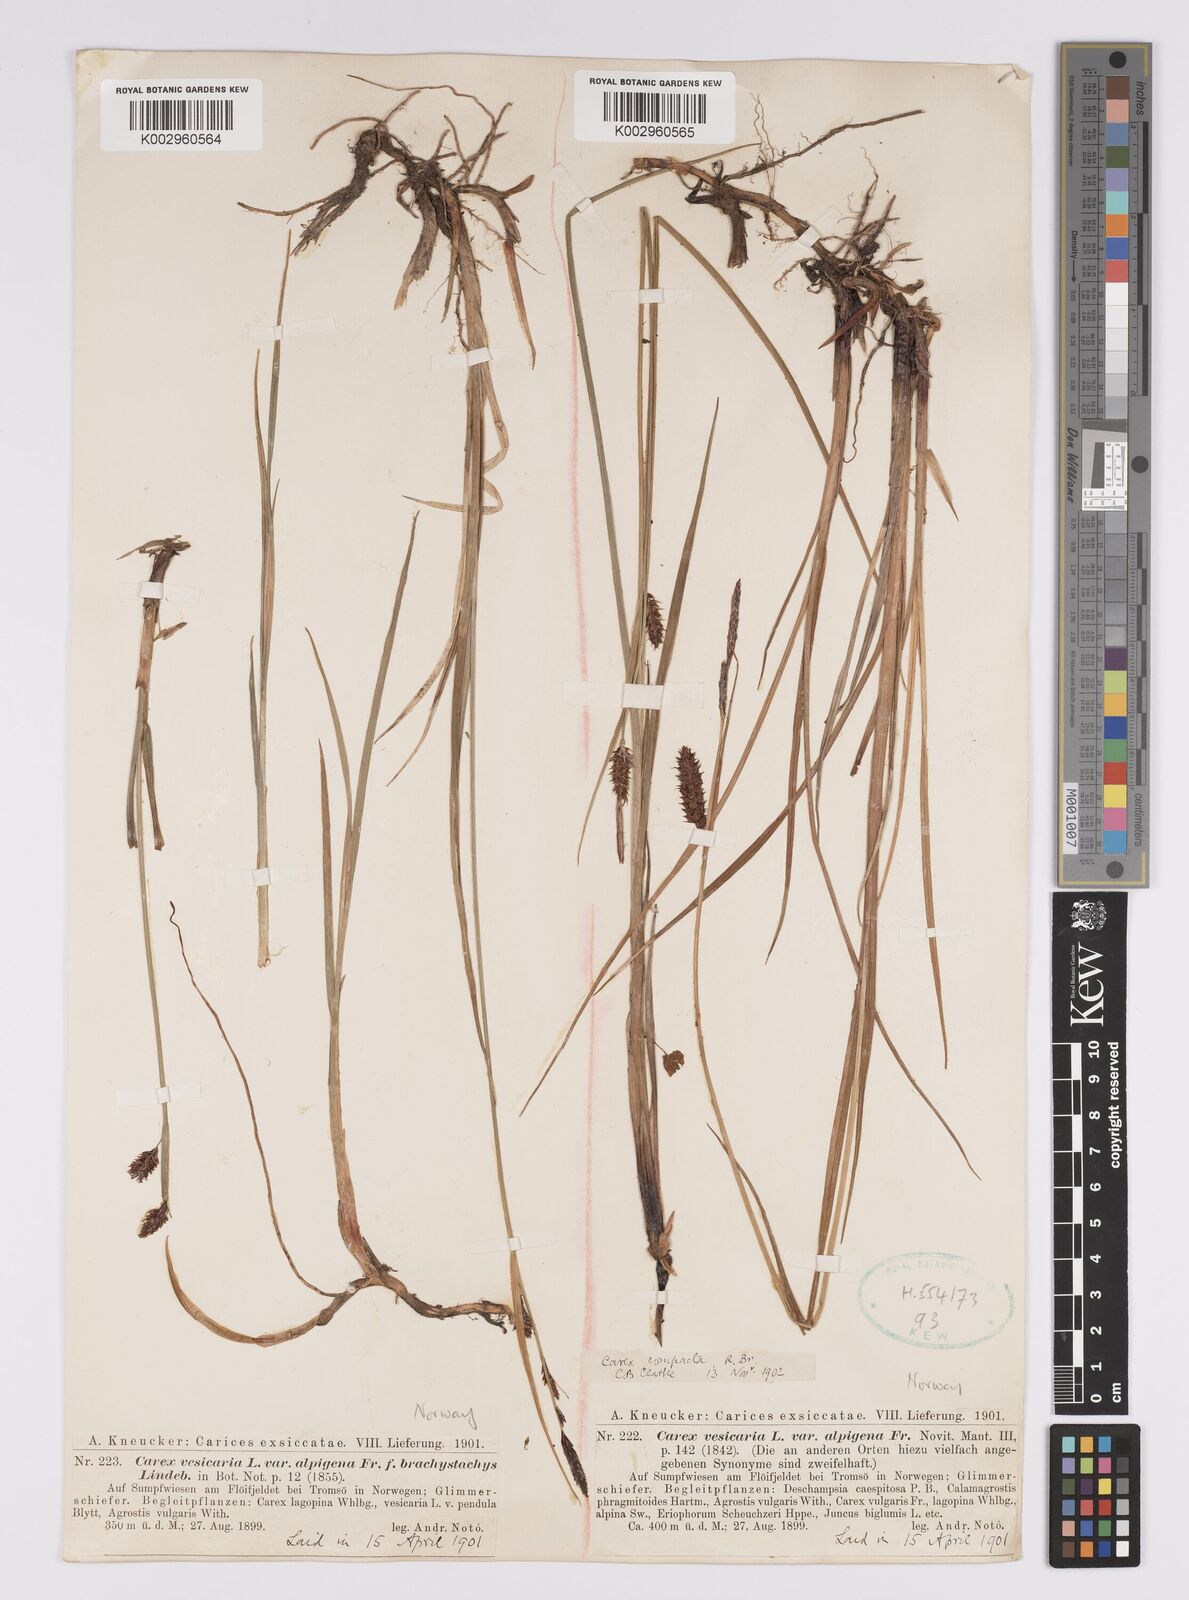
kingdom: Plantae
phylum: Tracheophyta
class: Liliopsida
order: Poales
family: Cyperaceae
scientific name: Cyperaceae
